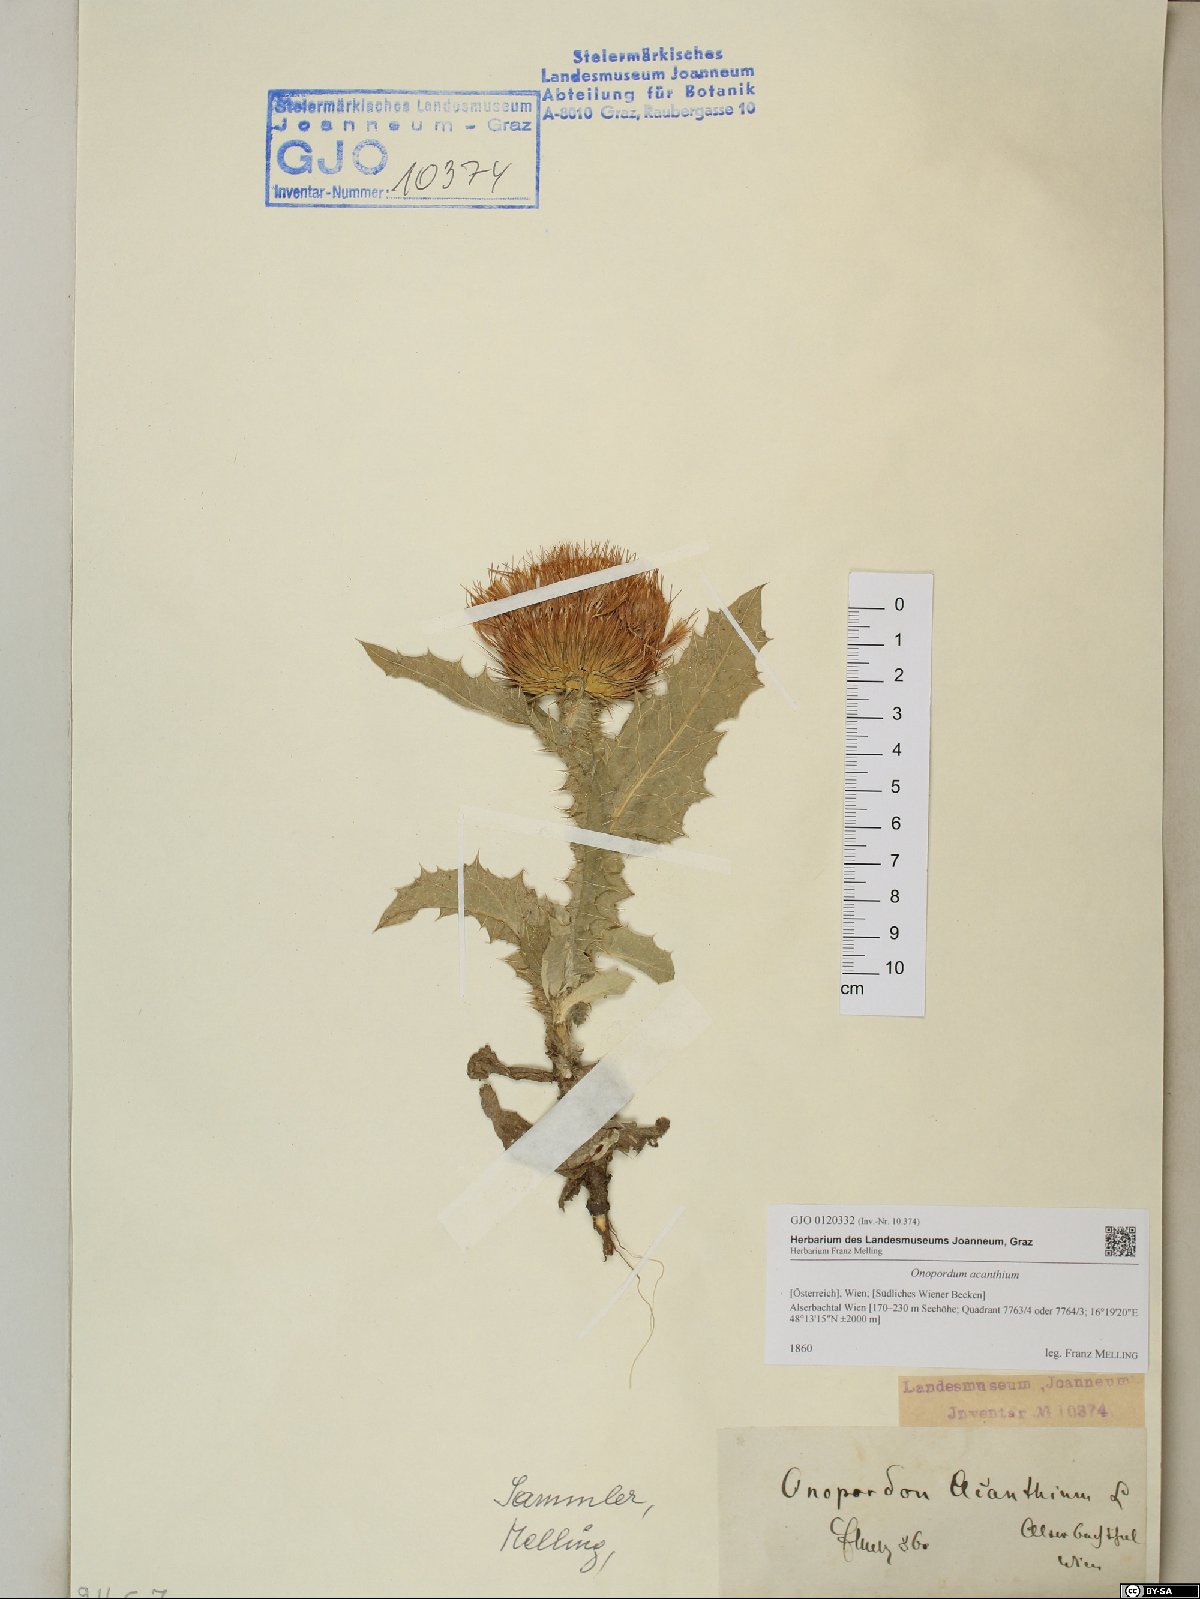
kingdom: Plantae
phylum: Tracheophyta
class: Magnoliopsida
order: Asterales
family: Asteraceae
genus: Onopordum
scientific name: Onopordum acanthium
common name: Scotch thistle
